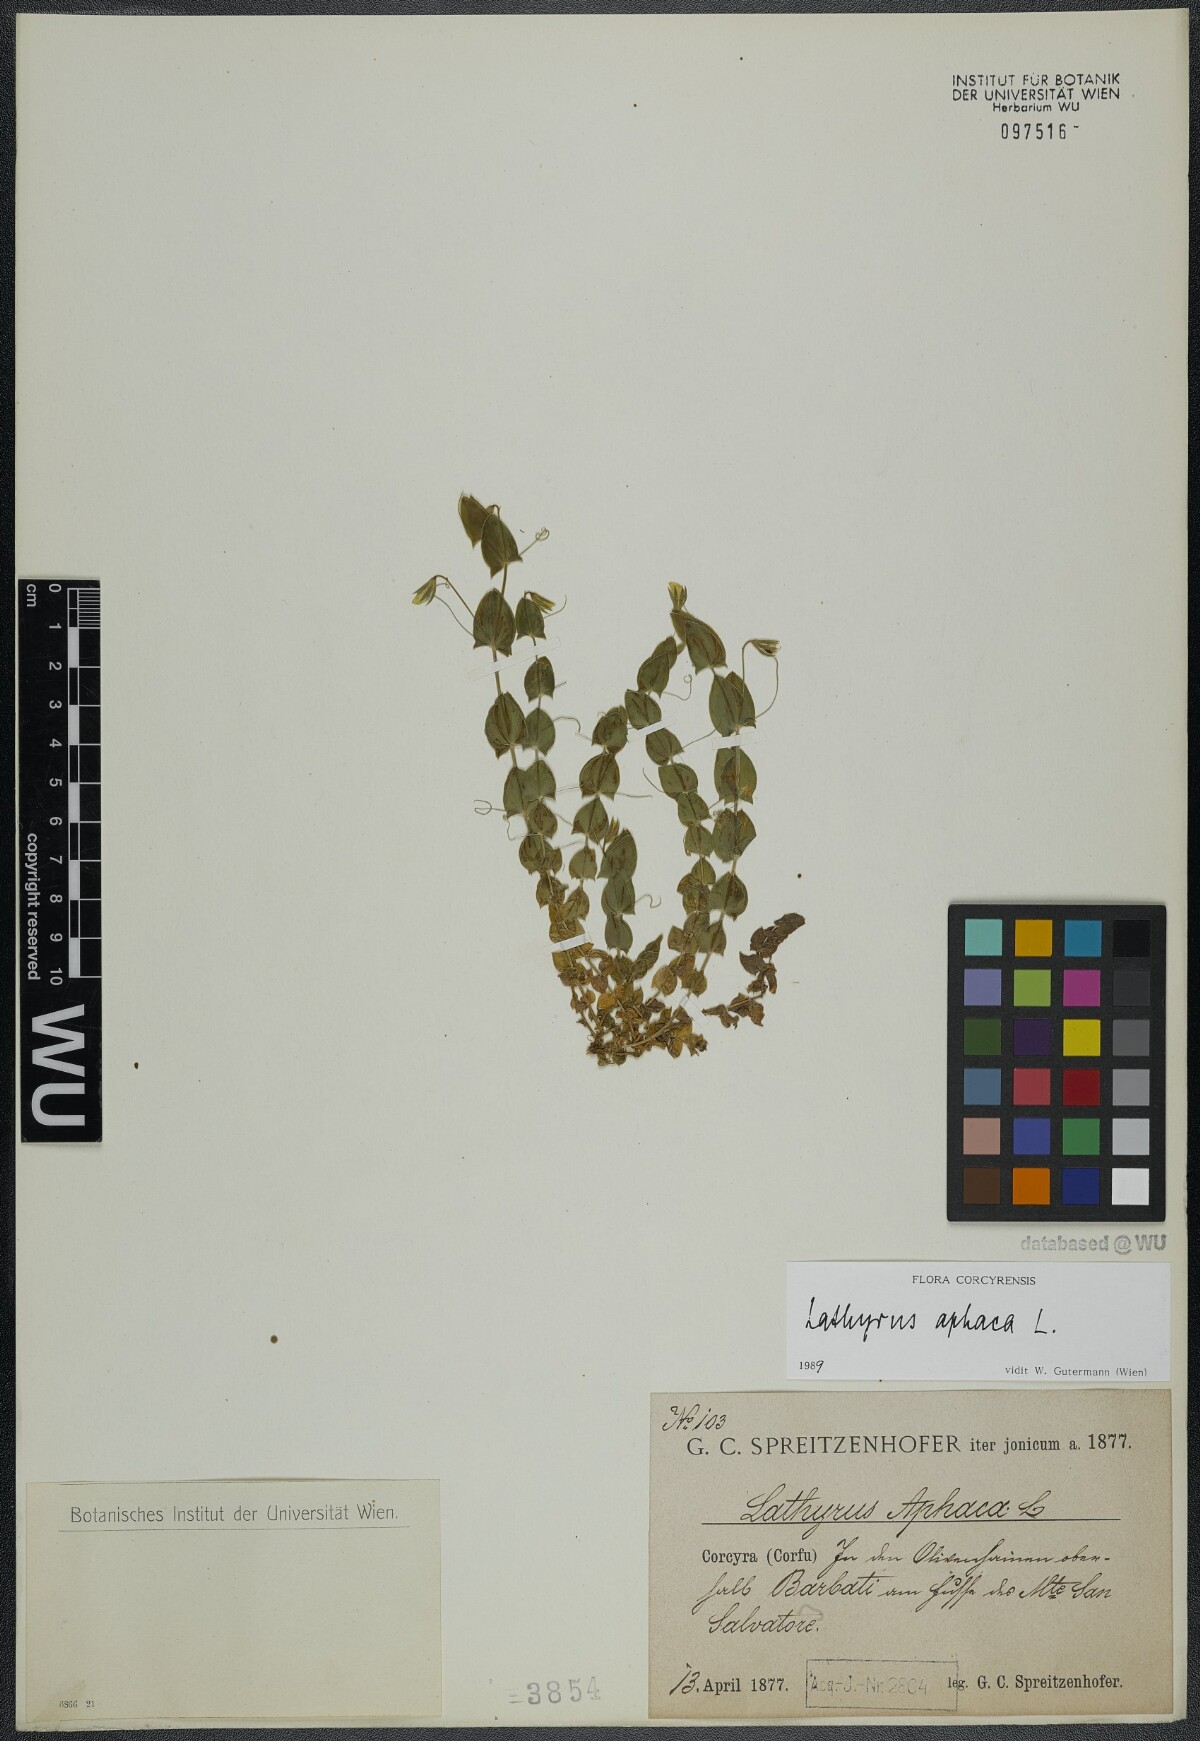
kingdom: Plantae
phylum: Tracheophyta
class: Magnoliopsida
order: Fabales
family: Fabaceae
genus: Lathyrus
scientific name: Lathyrus aphaca
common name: Yellow vetchling
